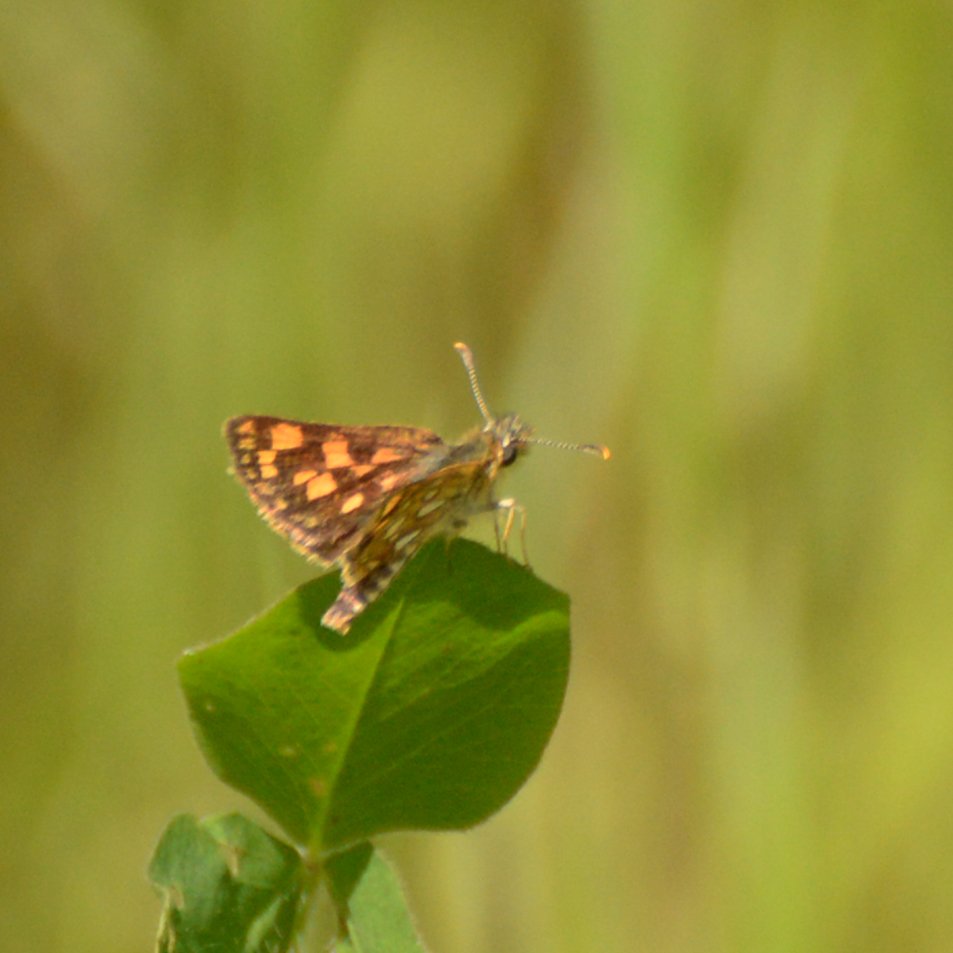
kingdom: Animalia
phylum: Arthropoda
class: Insecta
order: Lepidoptera
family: Hesperiidae
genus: Carterocephalus
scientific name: Carterocephalus palaemon
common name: Chequered Skipper
